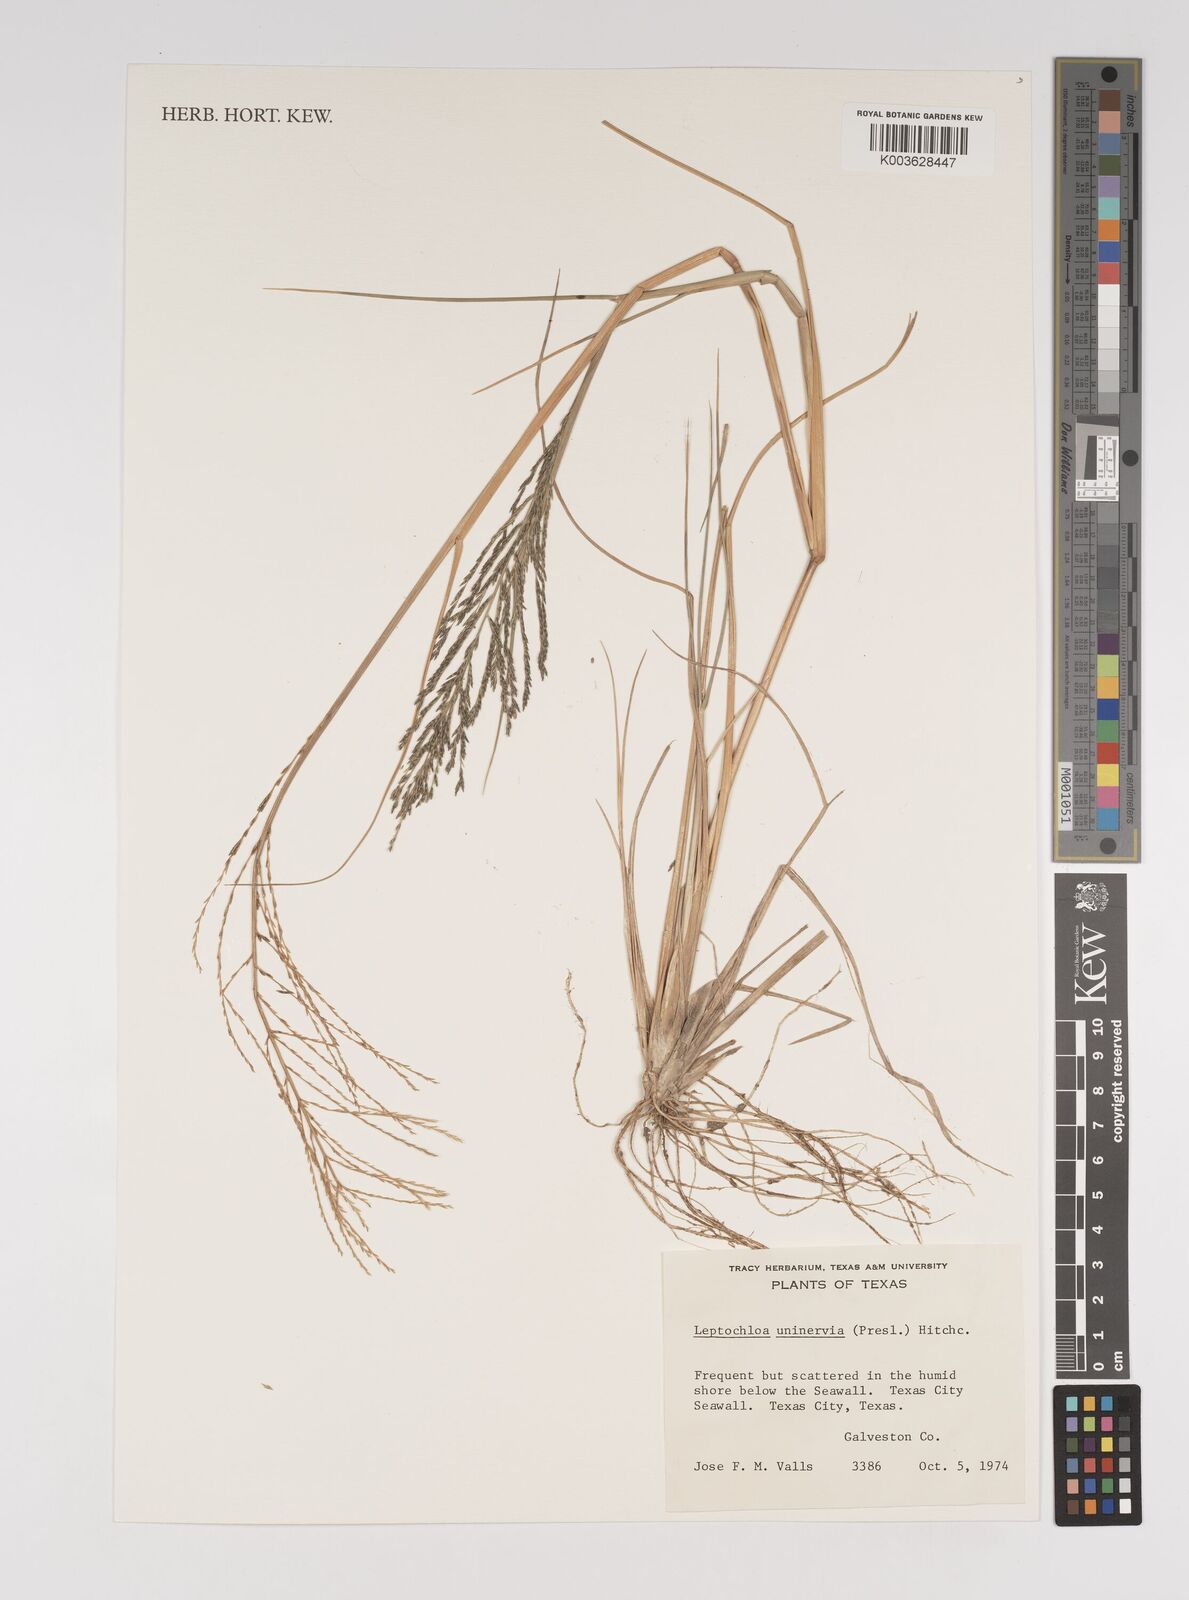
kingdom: Plantae
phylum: Tracheophyta
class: Liliopsida
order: Poales
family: Poaceae
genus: Diplachne
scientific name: Diplachne fusca
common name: Brown beetle grass
